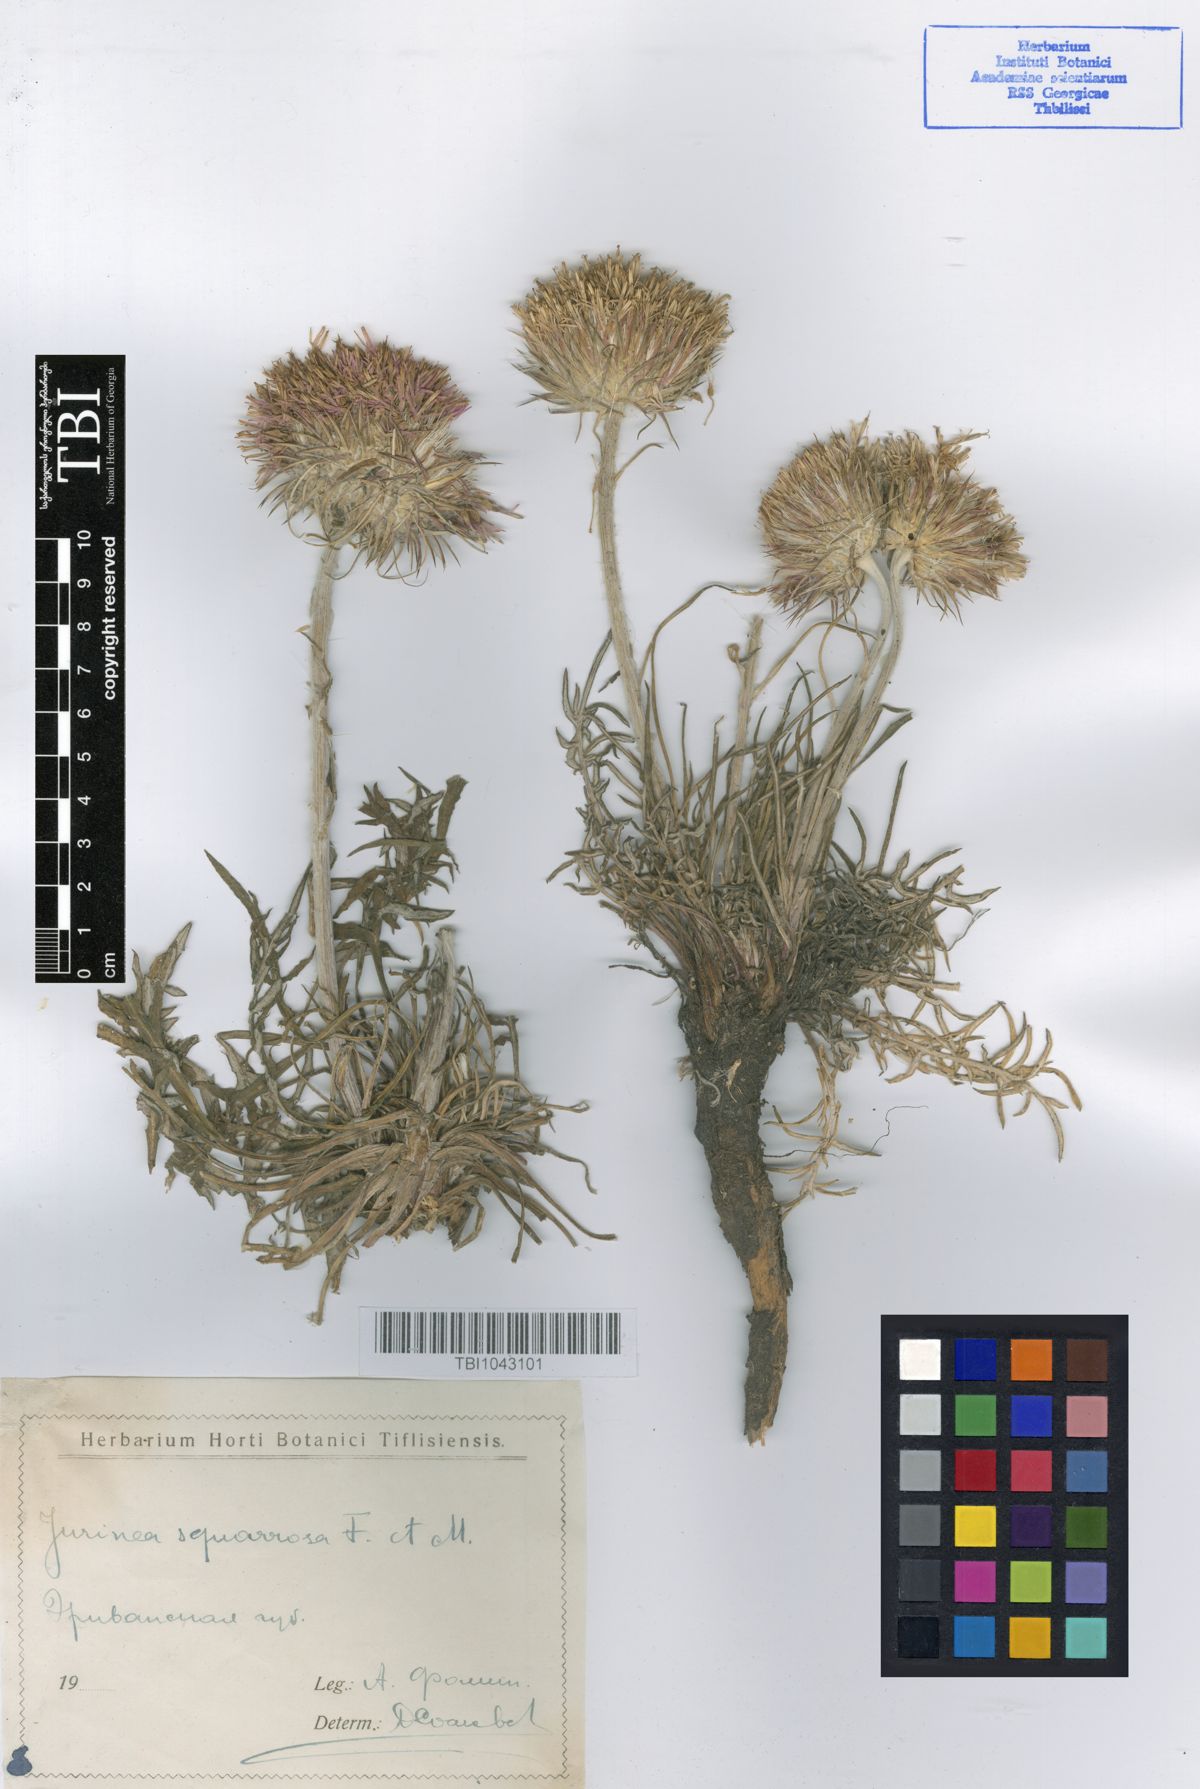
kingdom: Plantae
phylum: Tracheophyta
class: Magnoliopsida
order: Asterales
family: Asteraceae
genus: Jurinea
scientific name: Jurinea squarrosa
